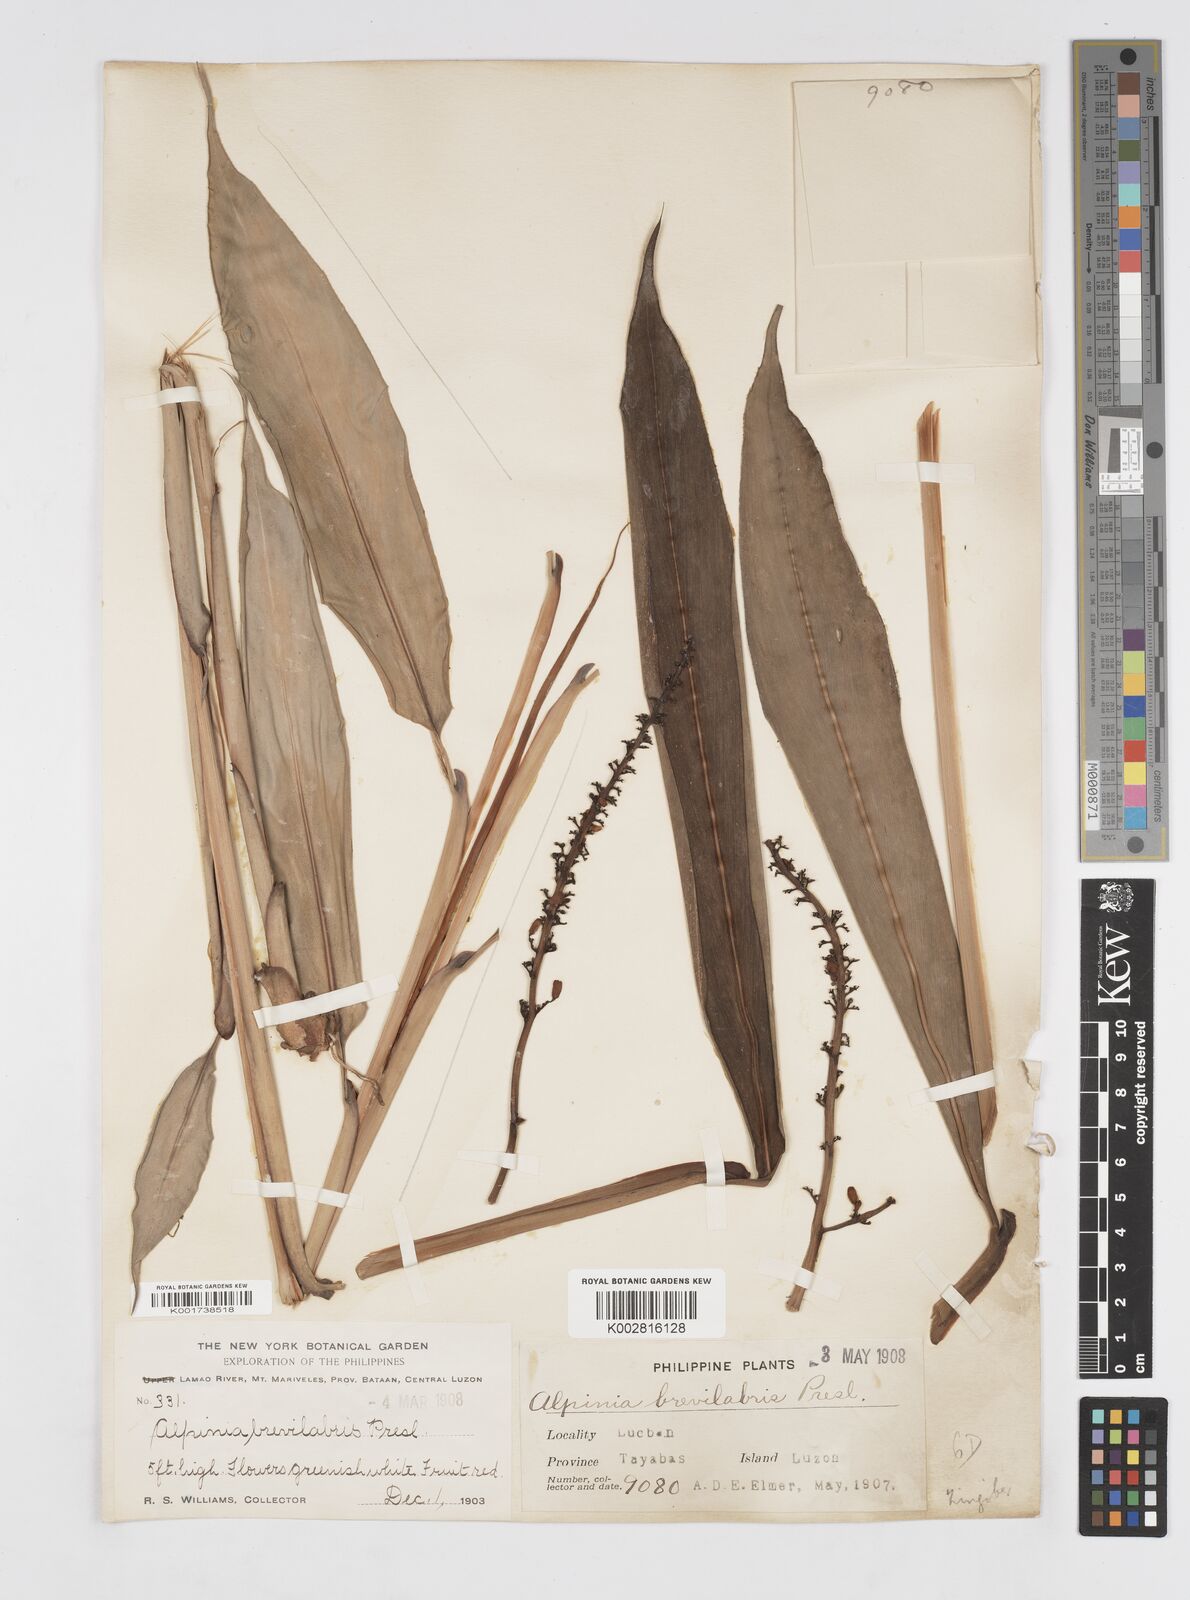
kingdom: Plantae
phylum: Tracheophyta
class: Liliopsida
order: Zingiberales
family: Zingiberaceae
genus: Alpinia
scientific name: Alpinia brevilabris
